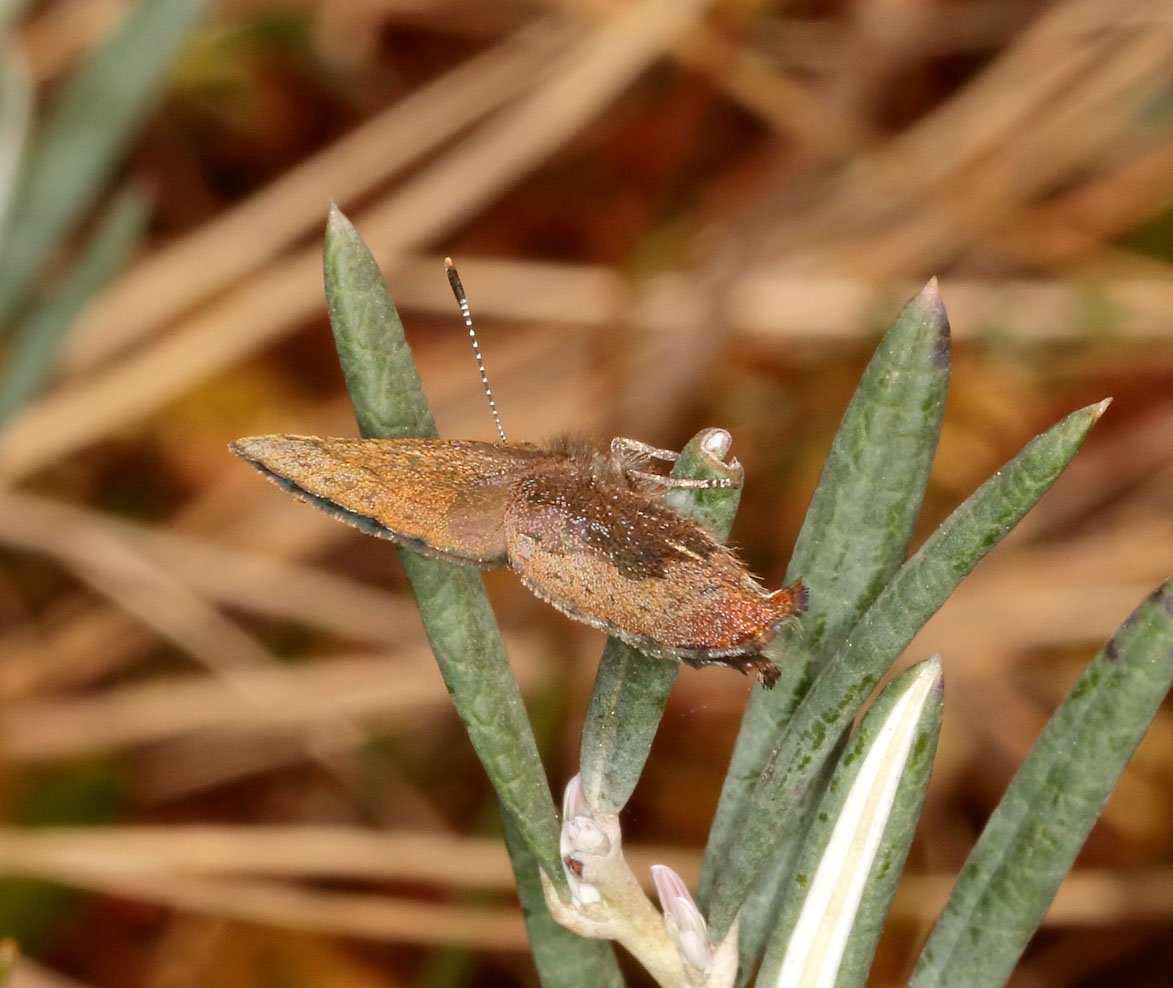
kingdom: Animalia
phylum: Arthropoda
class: Insecta
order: Lepidoptera
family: Lycaenidae
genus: Callophrys
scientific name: Callophrys polios
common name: Hoary Elfin
